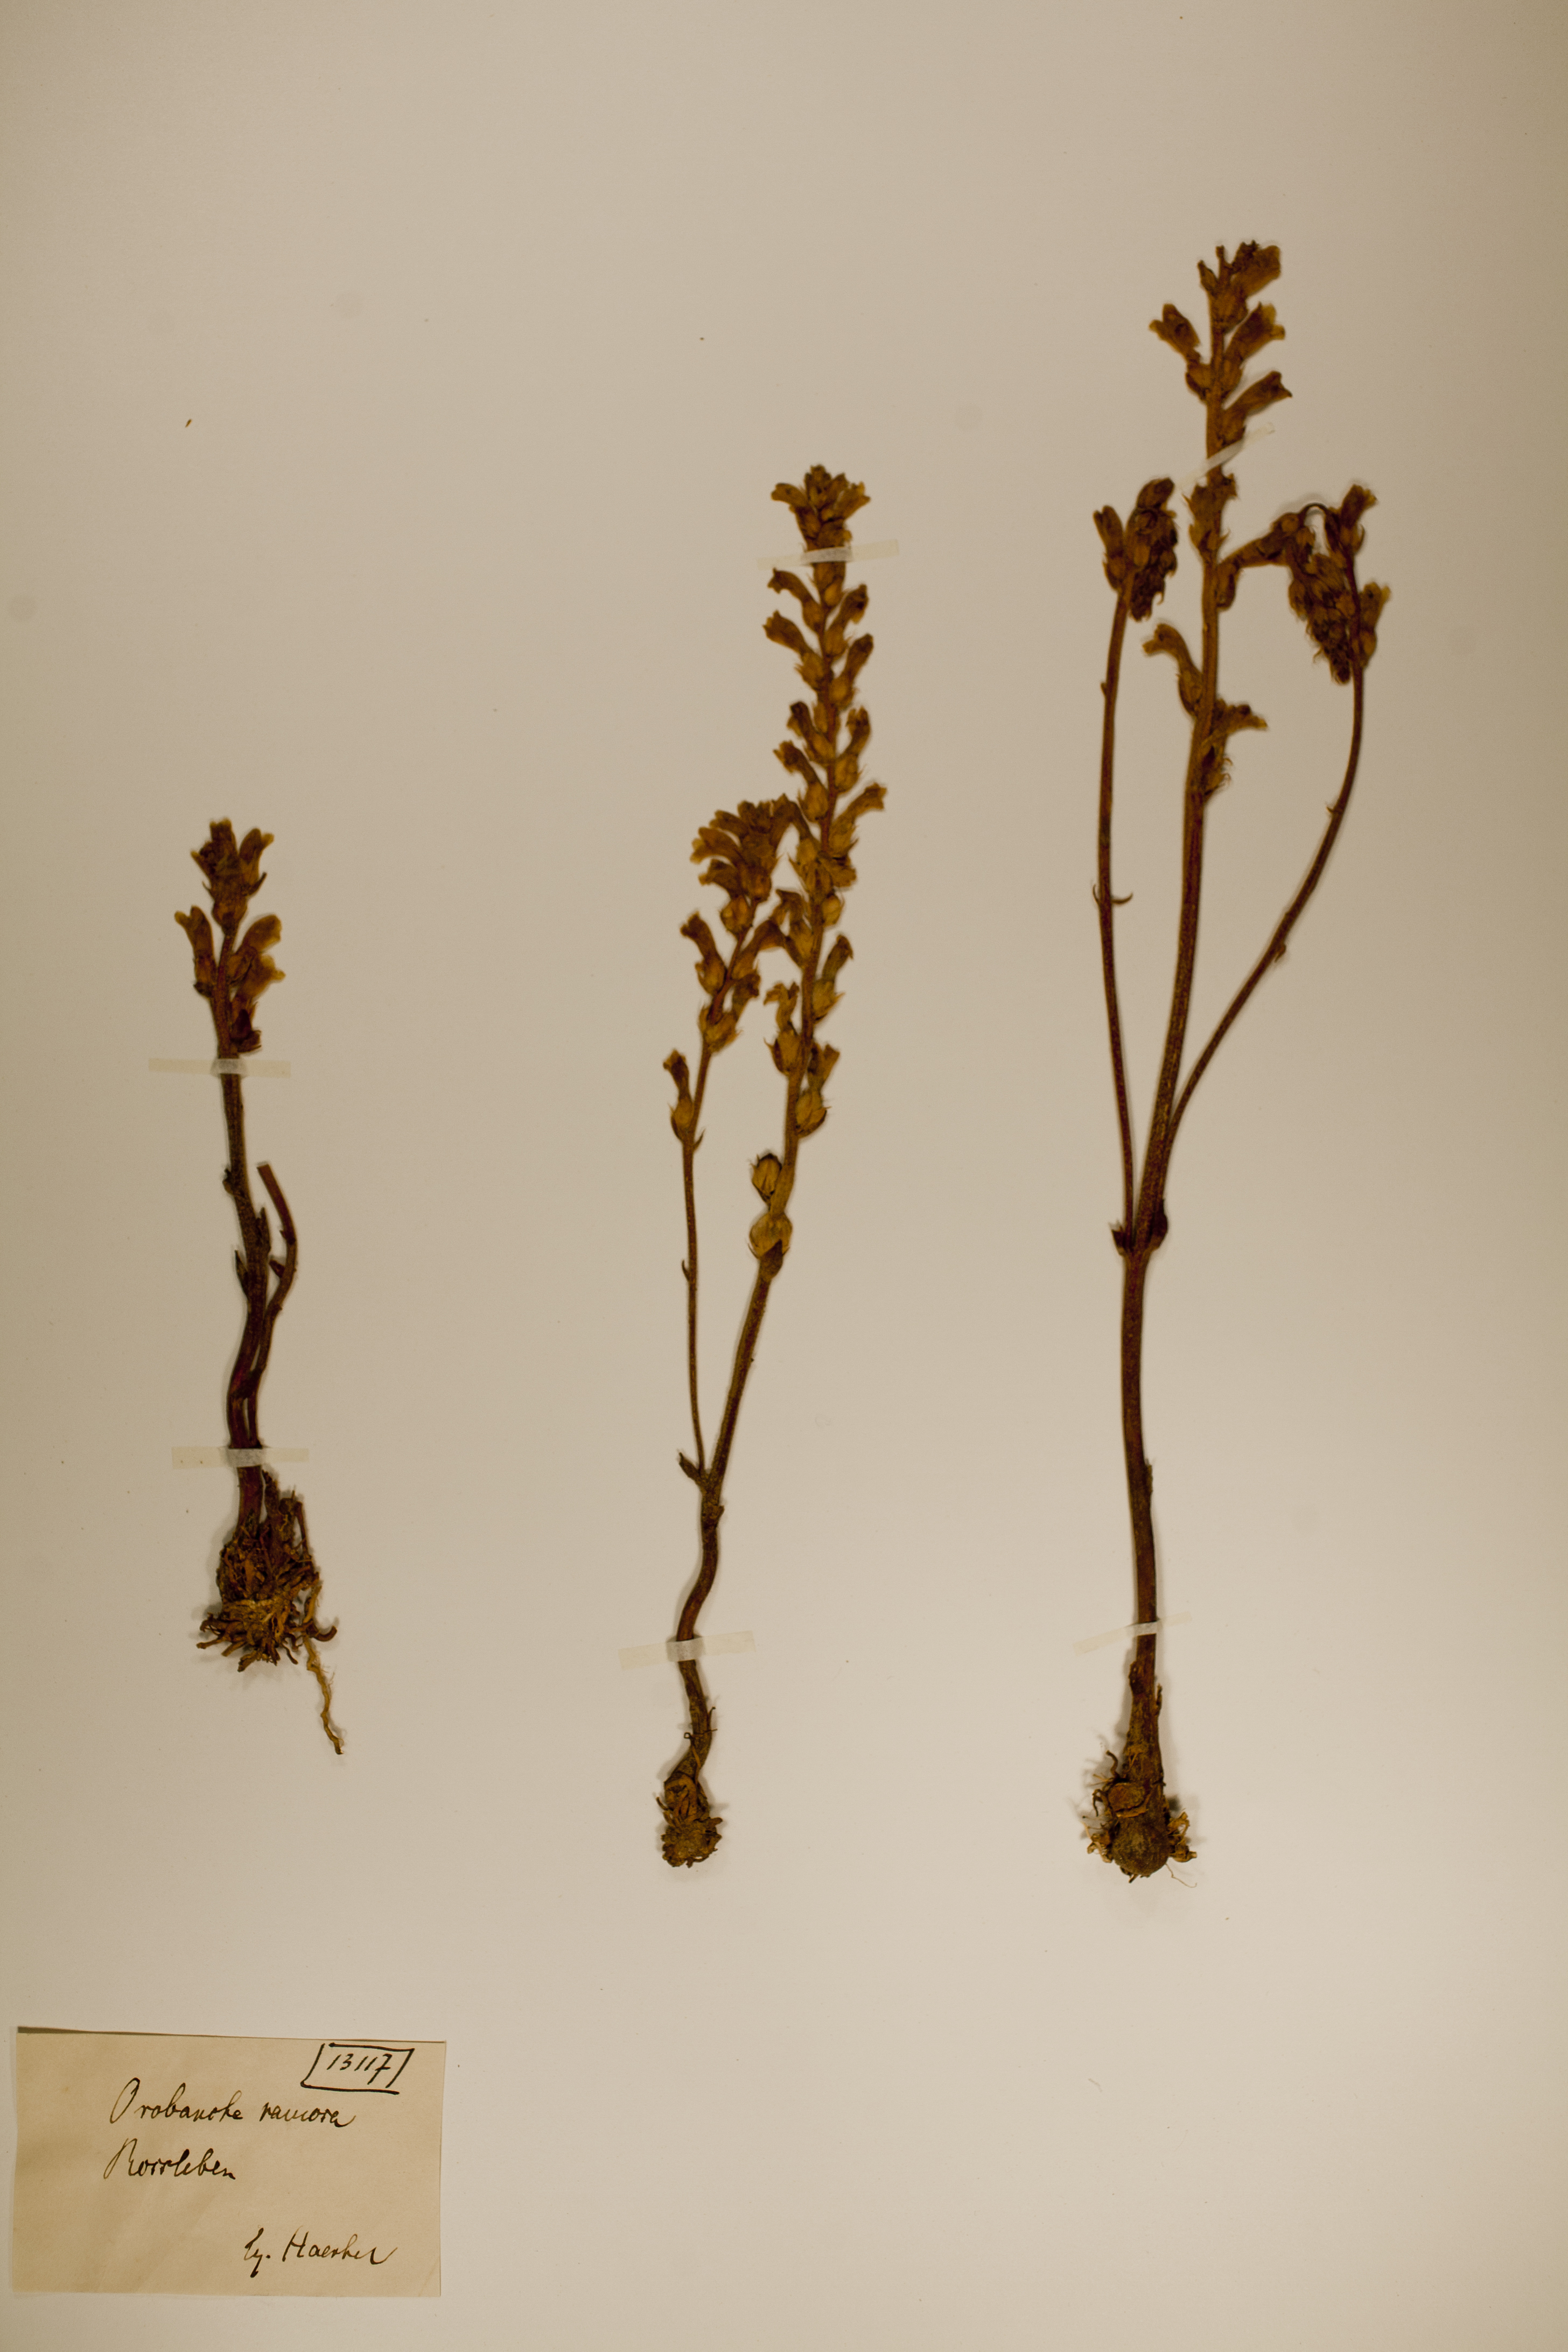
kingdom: Plantae
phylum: Tracheophyta
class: Magnoliopsida
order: Lamiales
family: Orobanchaceae
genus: Phelipanche
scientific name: Phelipanche ramosa
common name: Branched broomrape
